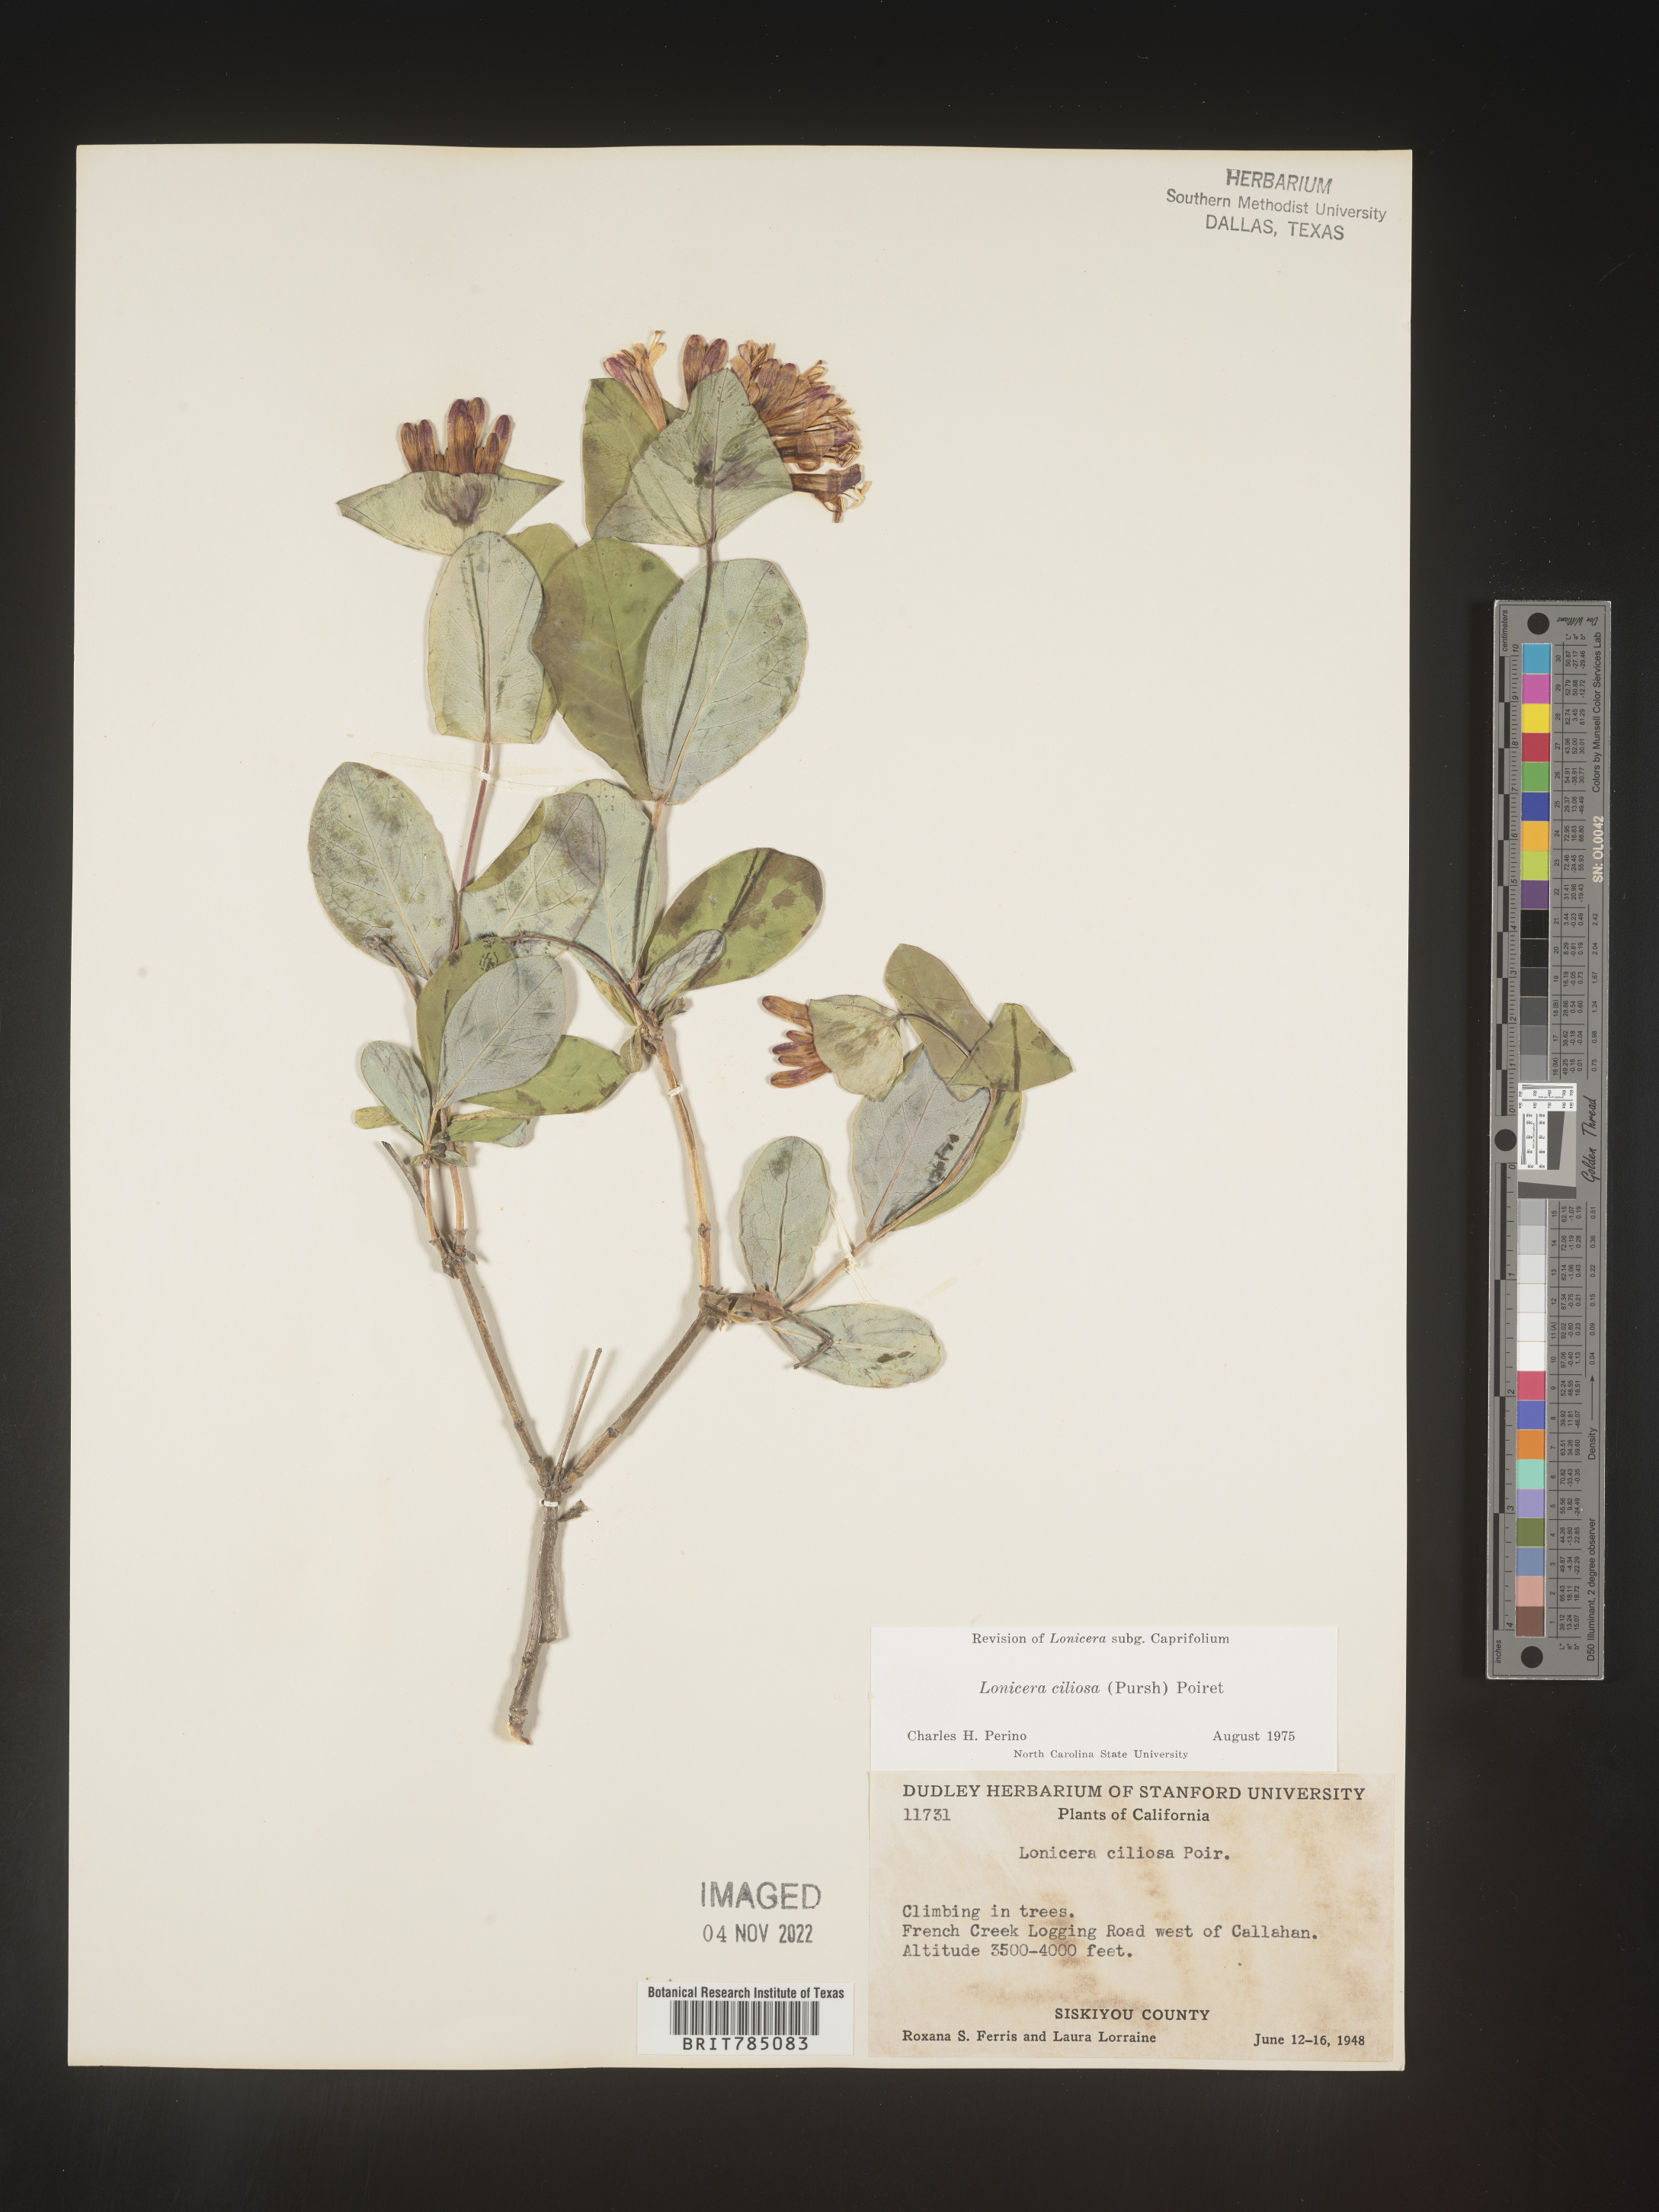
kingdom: Plantae
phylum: Tracheophyta
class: Magnoliopsida
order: Dipsacales
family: Caprifoliaceae
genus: Lonicera
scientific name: Lonicera
